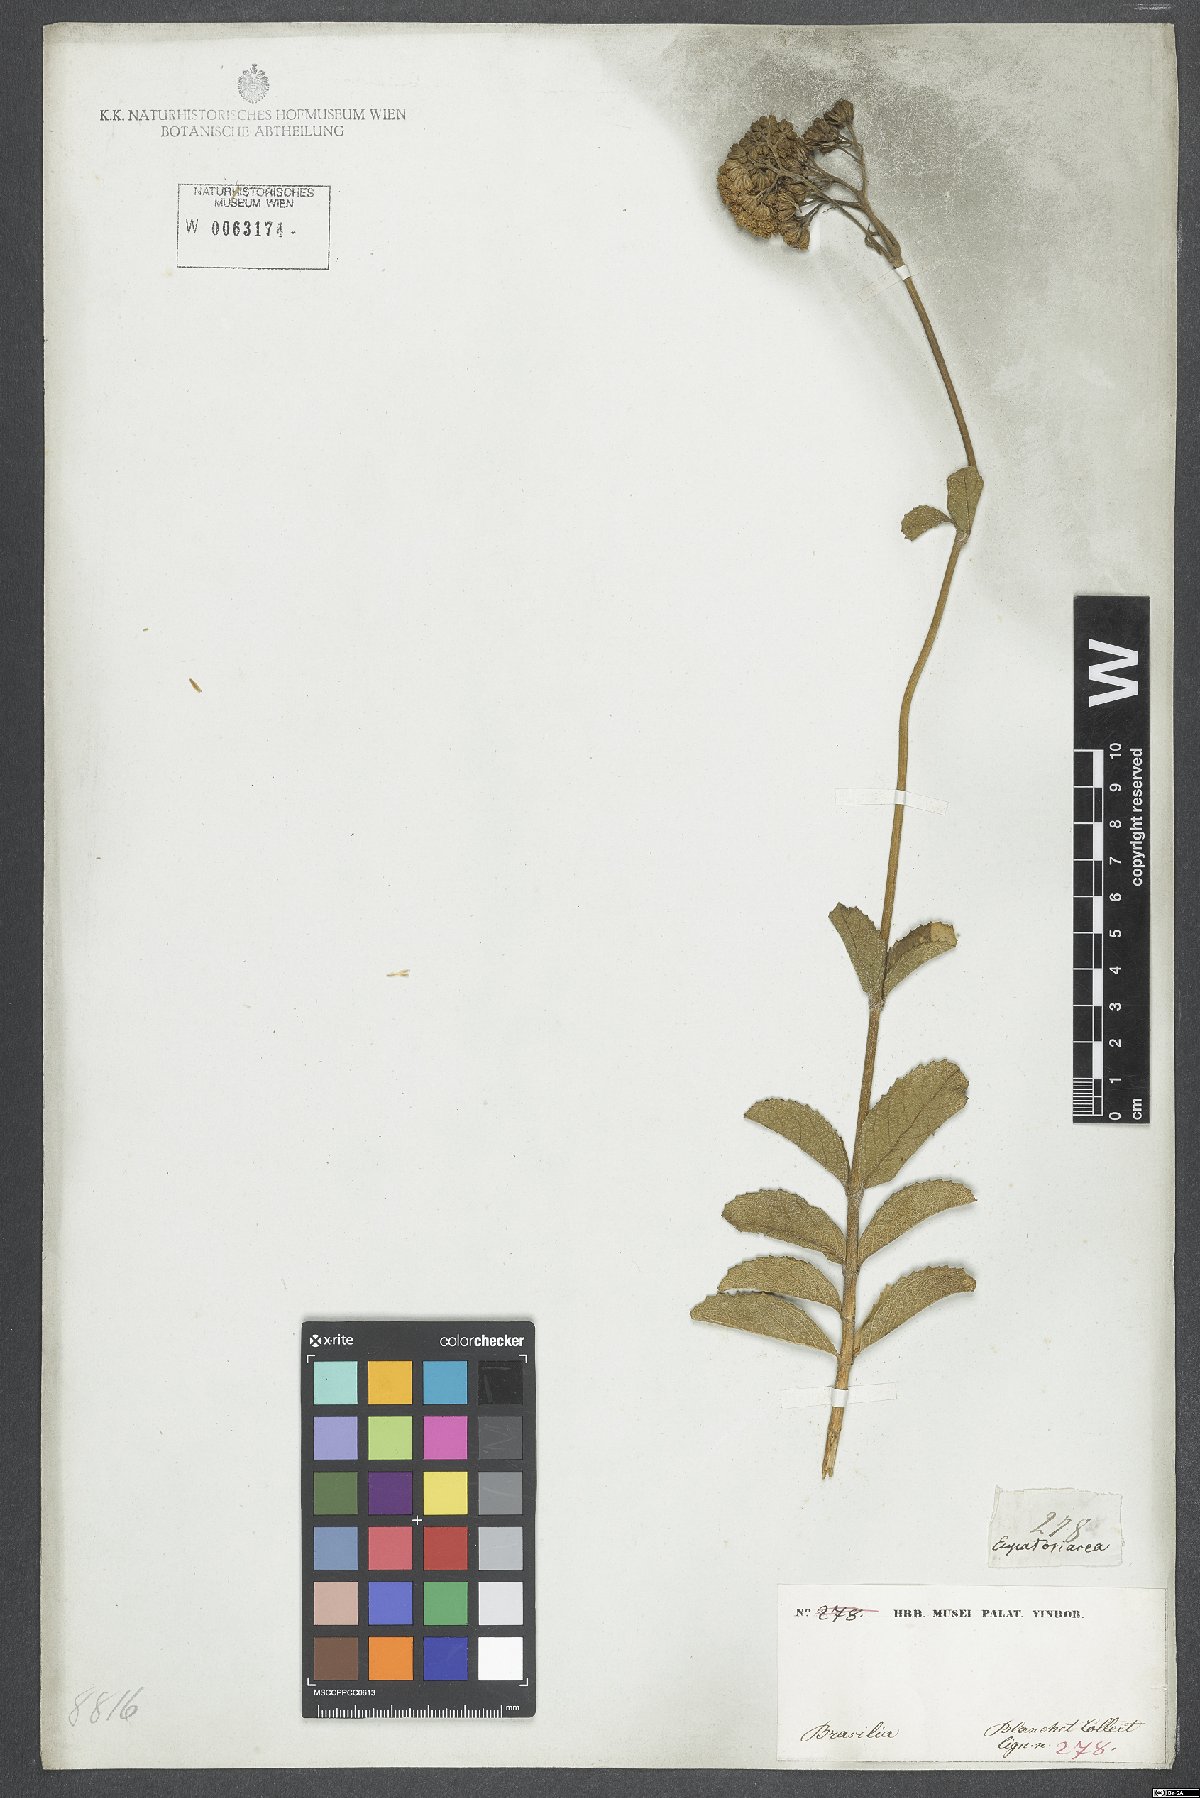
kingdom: Plantae
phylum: Tracheophyta
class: Magnoliopsida
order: Asterales
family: Asteraceae
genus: Eupatorium
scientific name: Eupatorium
